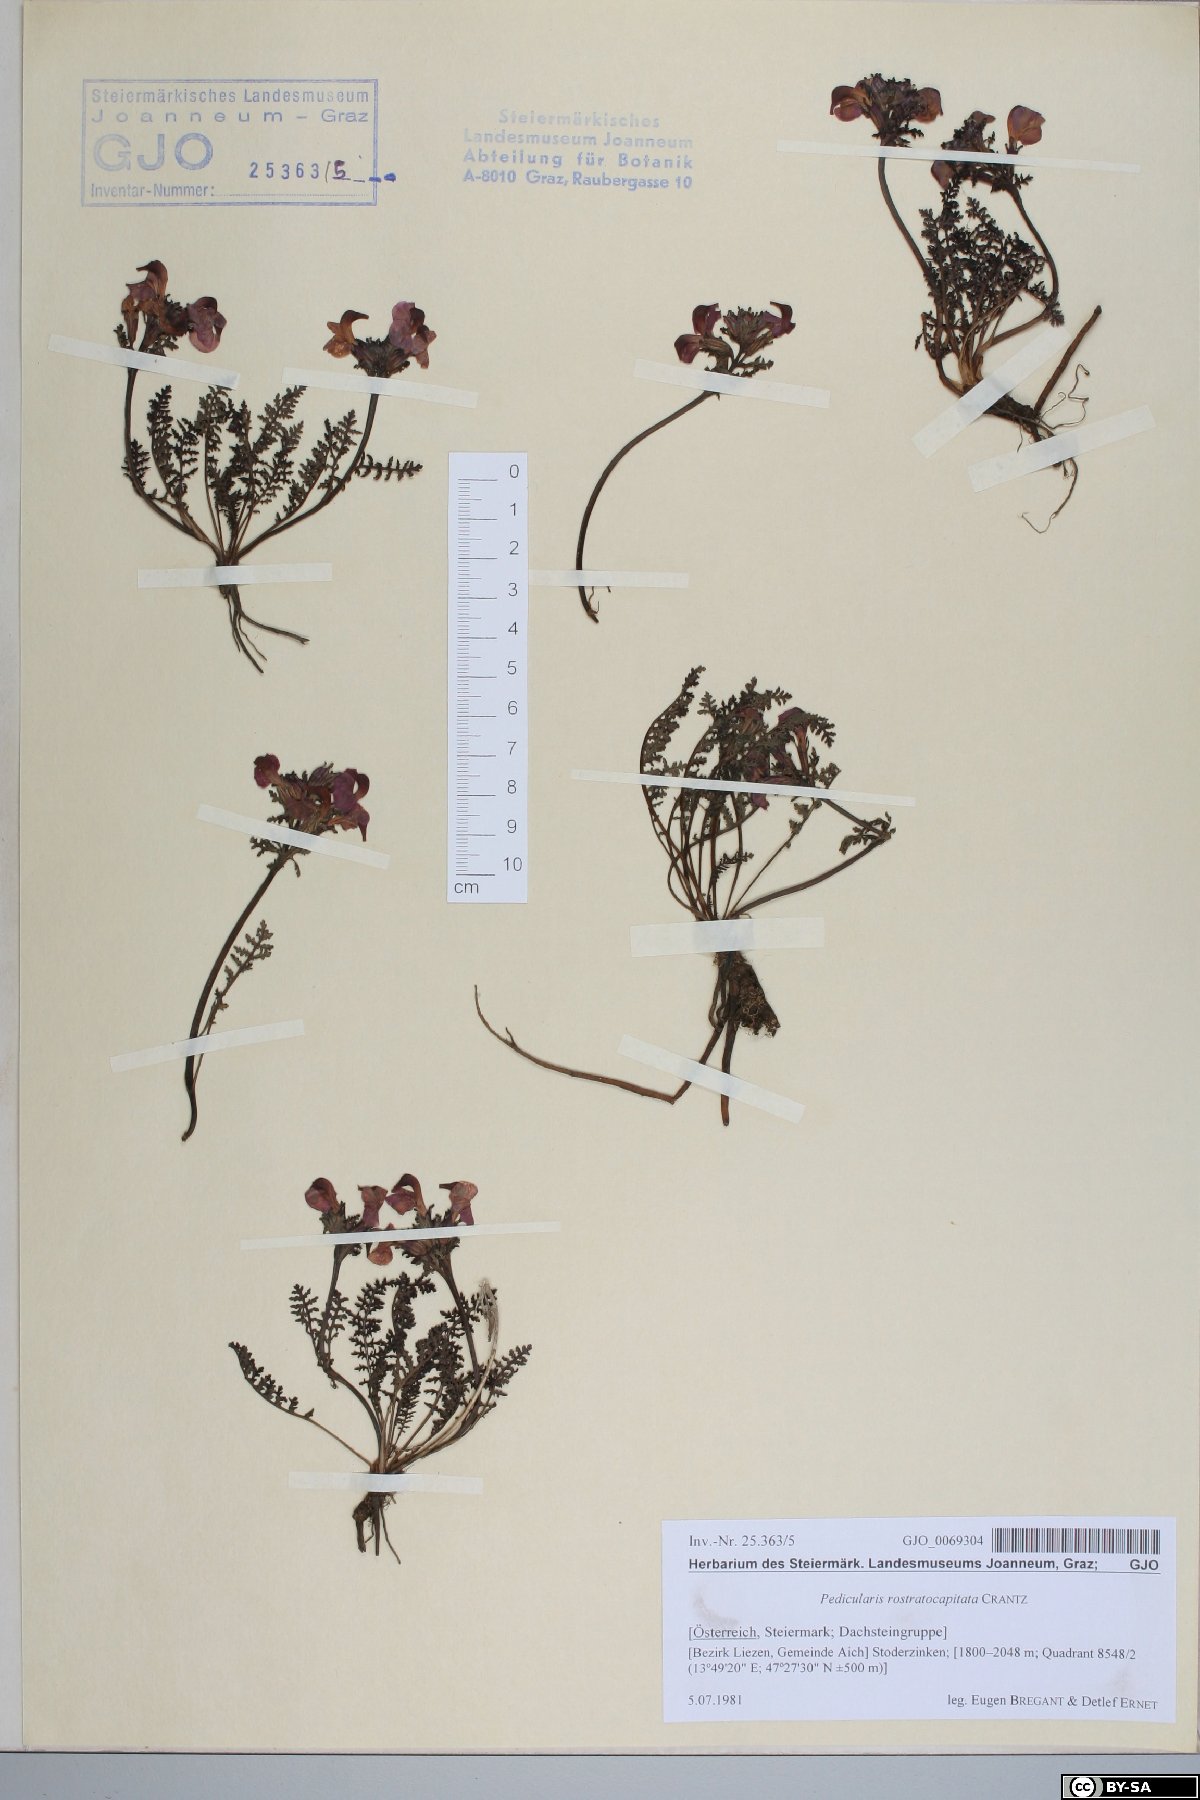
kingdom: Plantae
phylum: Tracheophyta
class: Magnoliopsida
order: Lamiales
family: Orobanchaceae
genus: Pedicularis
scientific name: Pedicularis rostratocapitata
